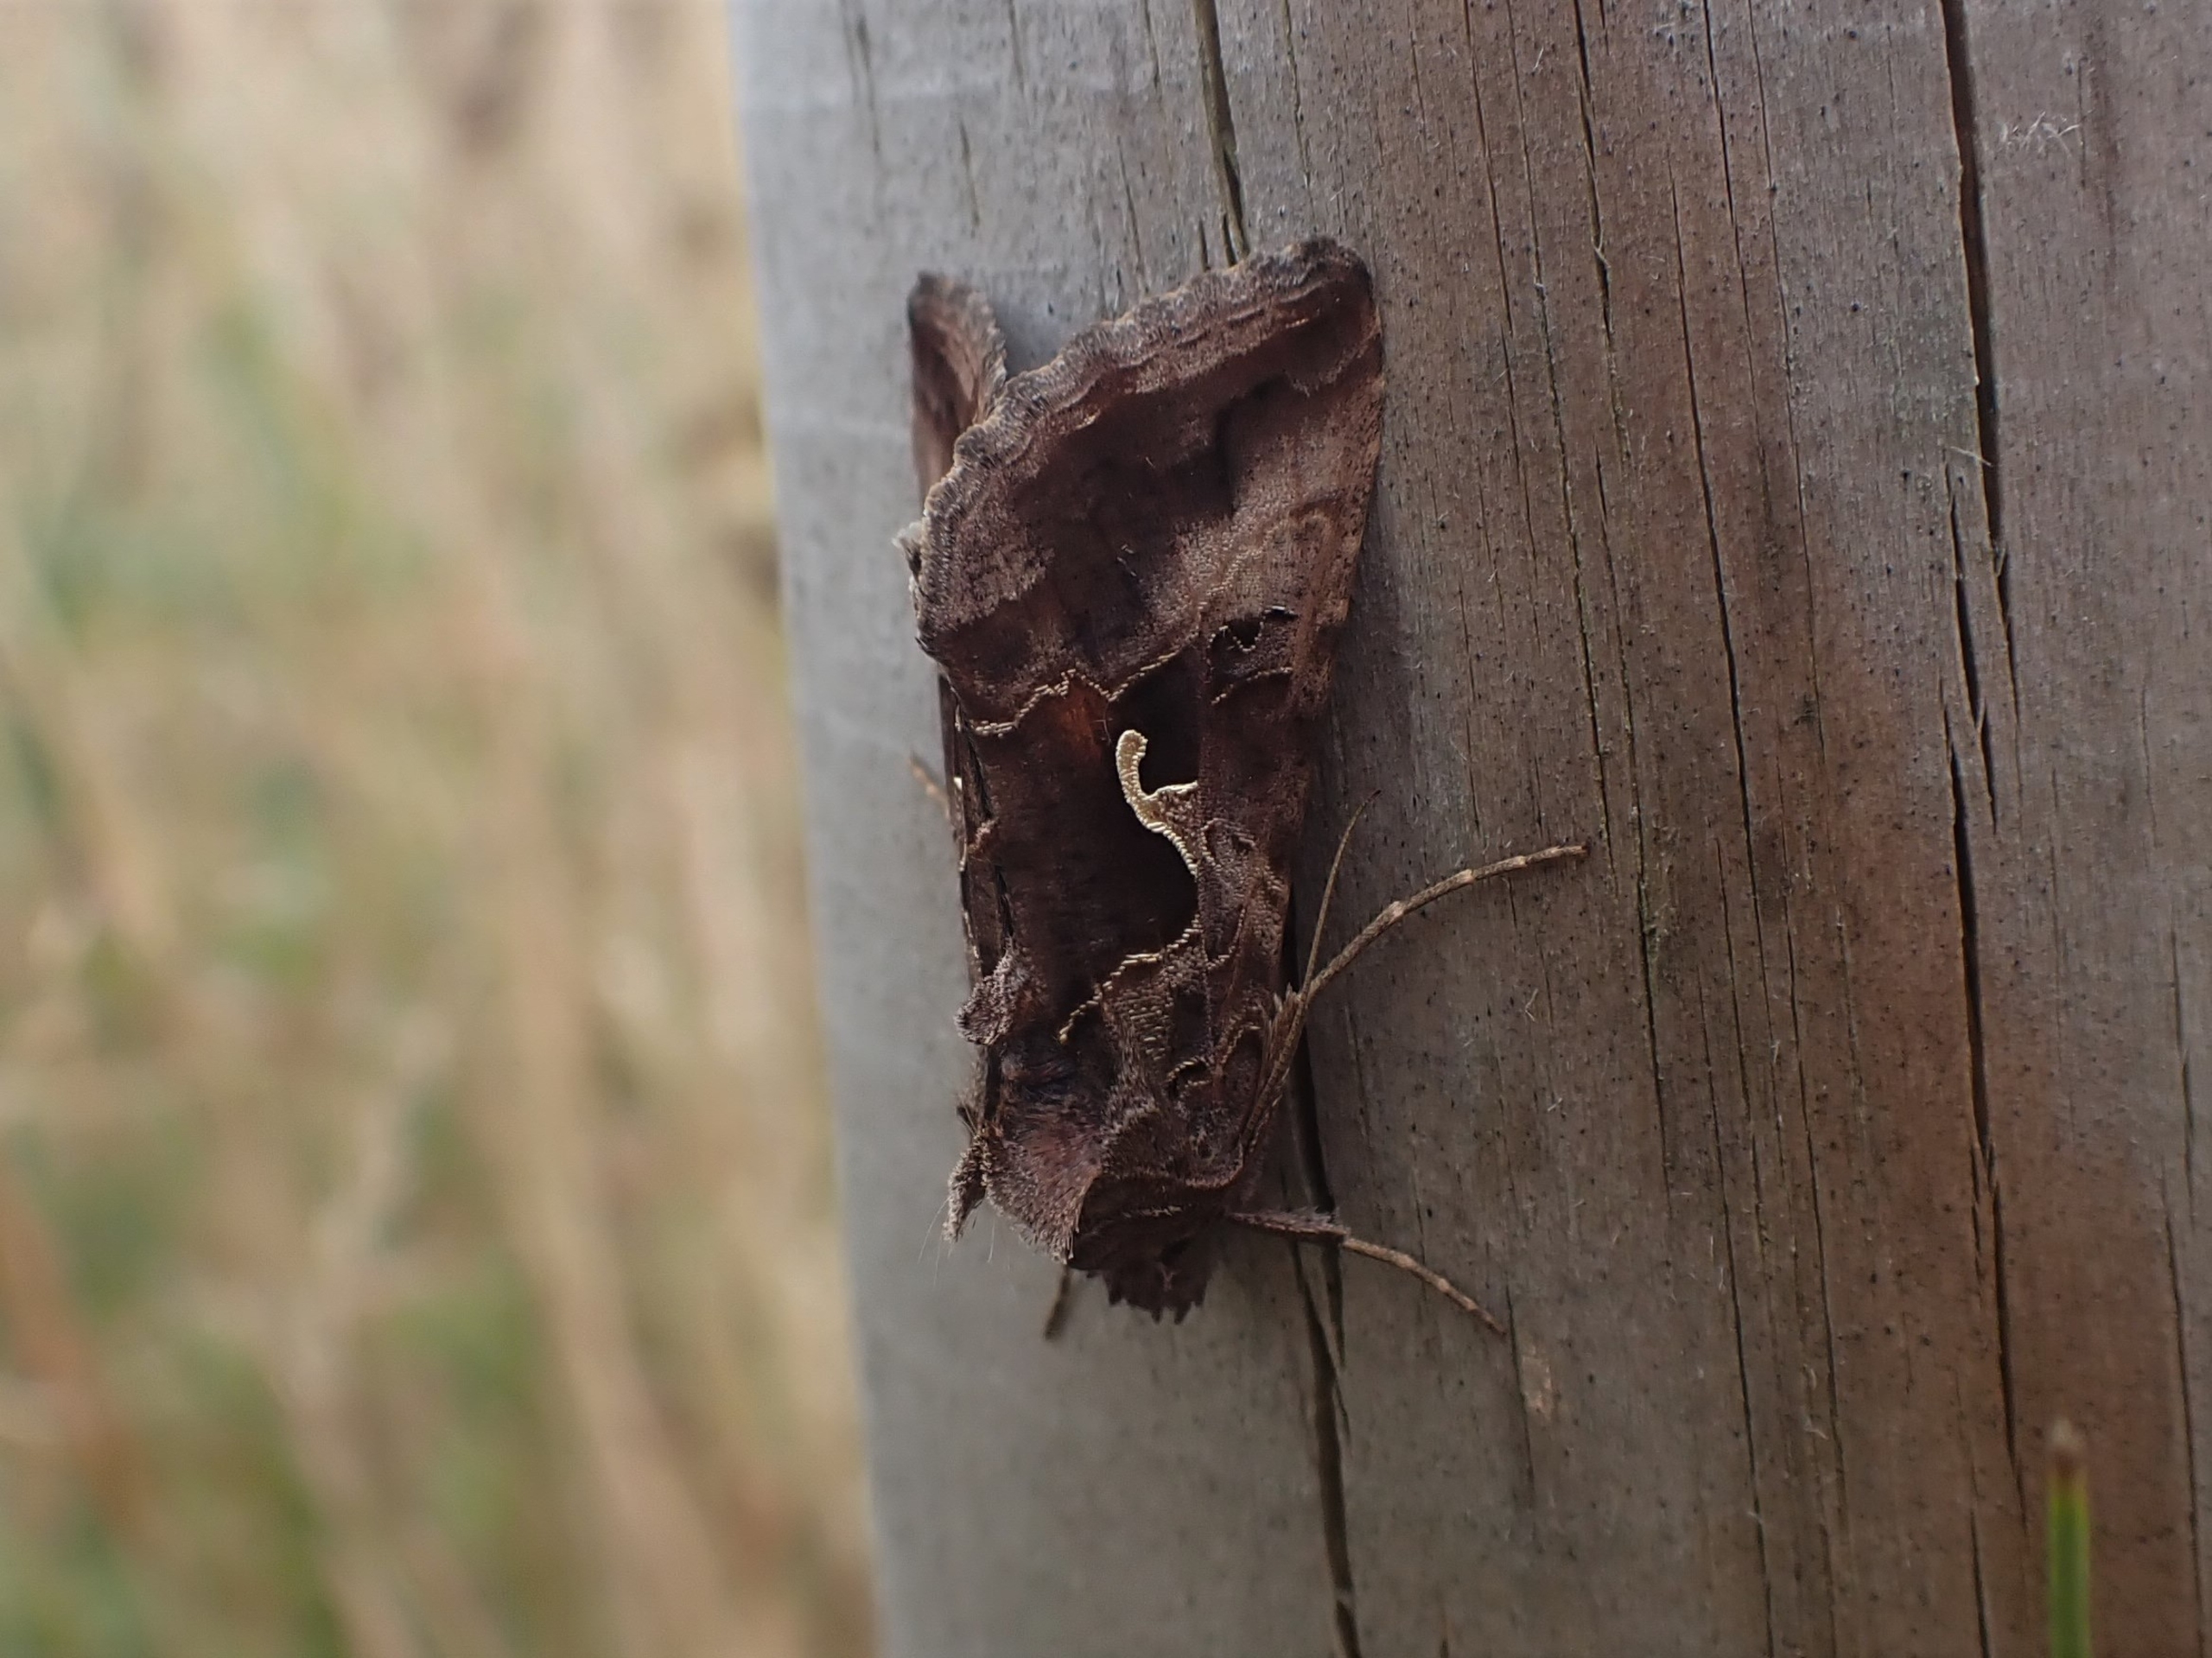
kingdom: Animalia
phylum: Arthropoda
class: Insecta
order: Lepidoptera
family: Noctuidae
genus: Autographa
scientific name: Autographa gamma
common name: Gammaugle
